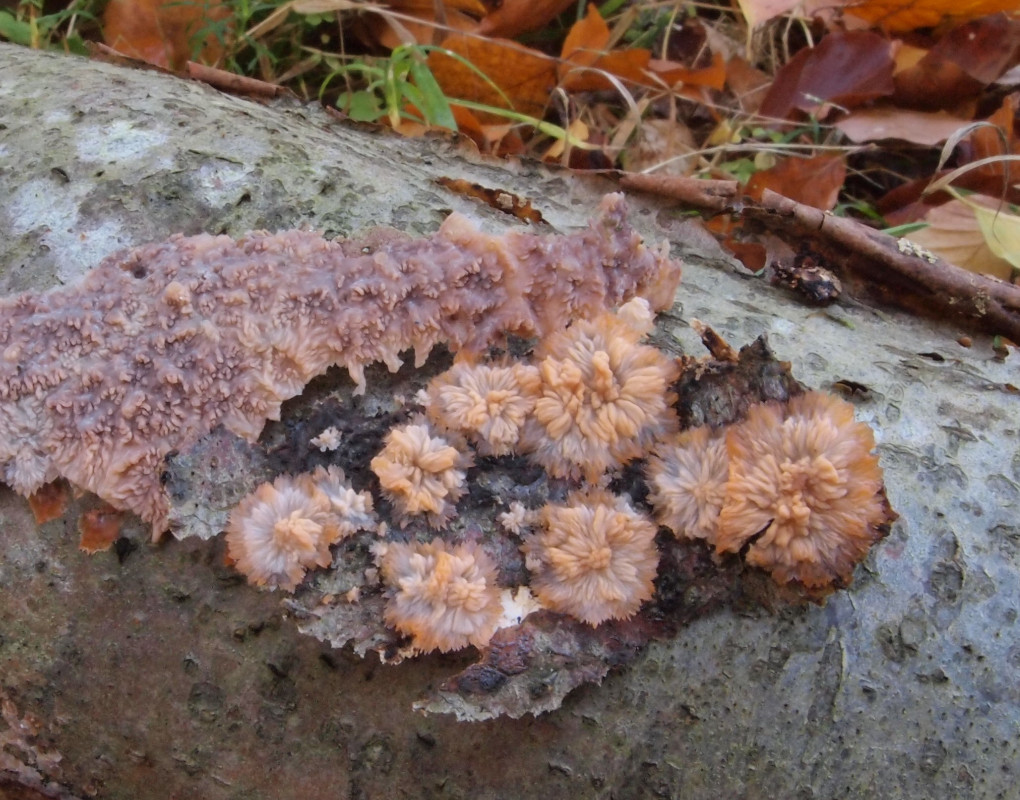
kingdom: Fungi
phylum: Basidiomycota
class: Agaricomycetes
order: Polyporales
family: Meruliaceae
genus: Phlebia
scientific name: Phlebia radiata
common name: stråle-åresvamp
